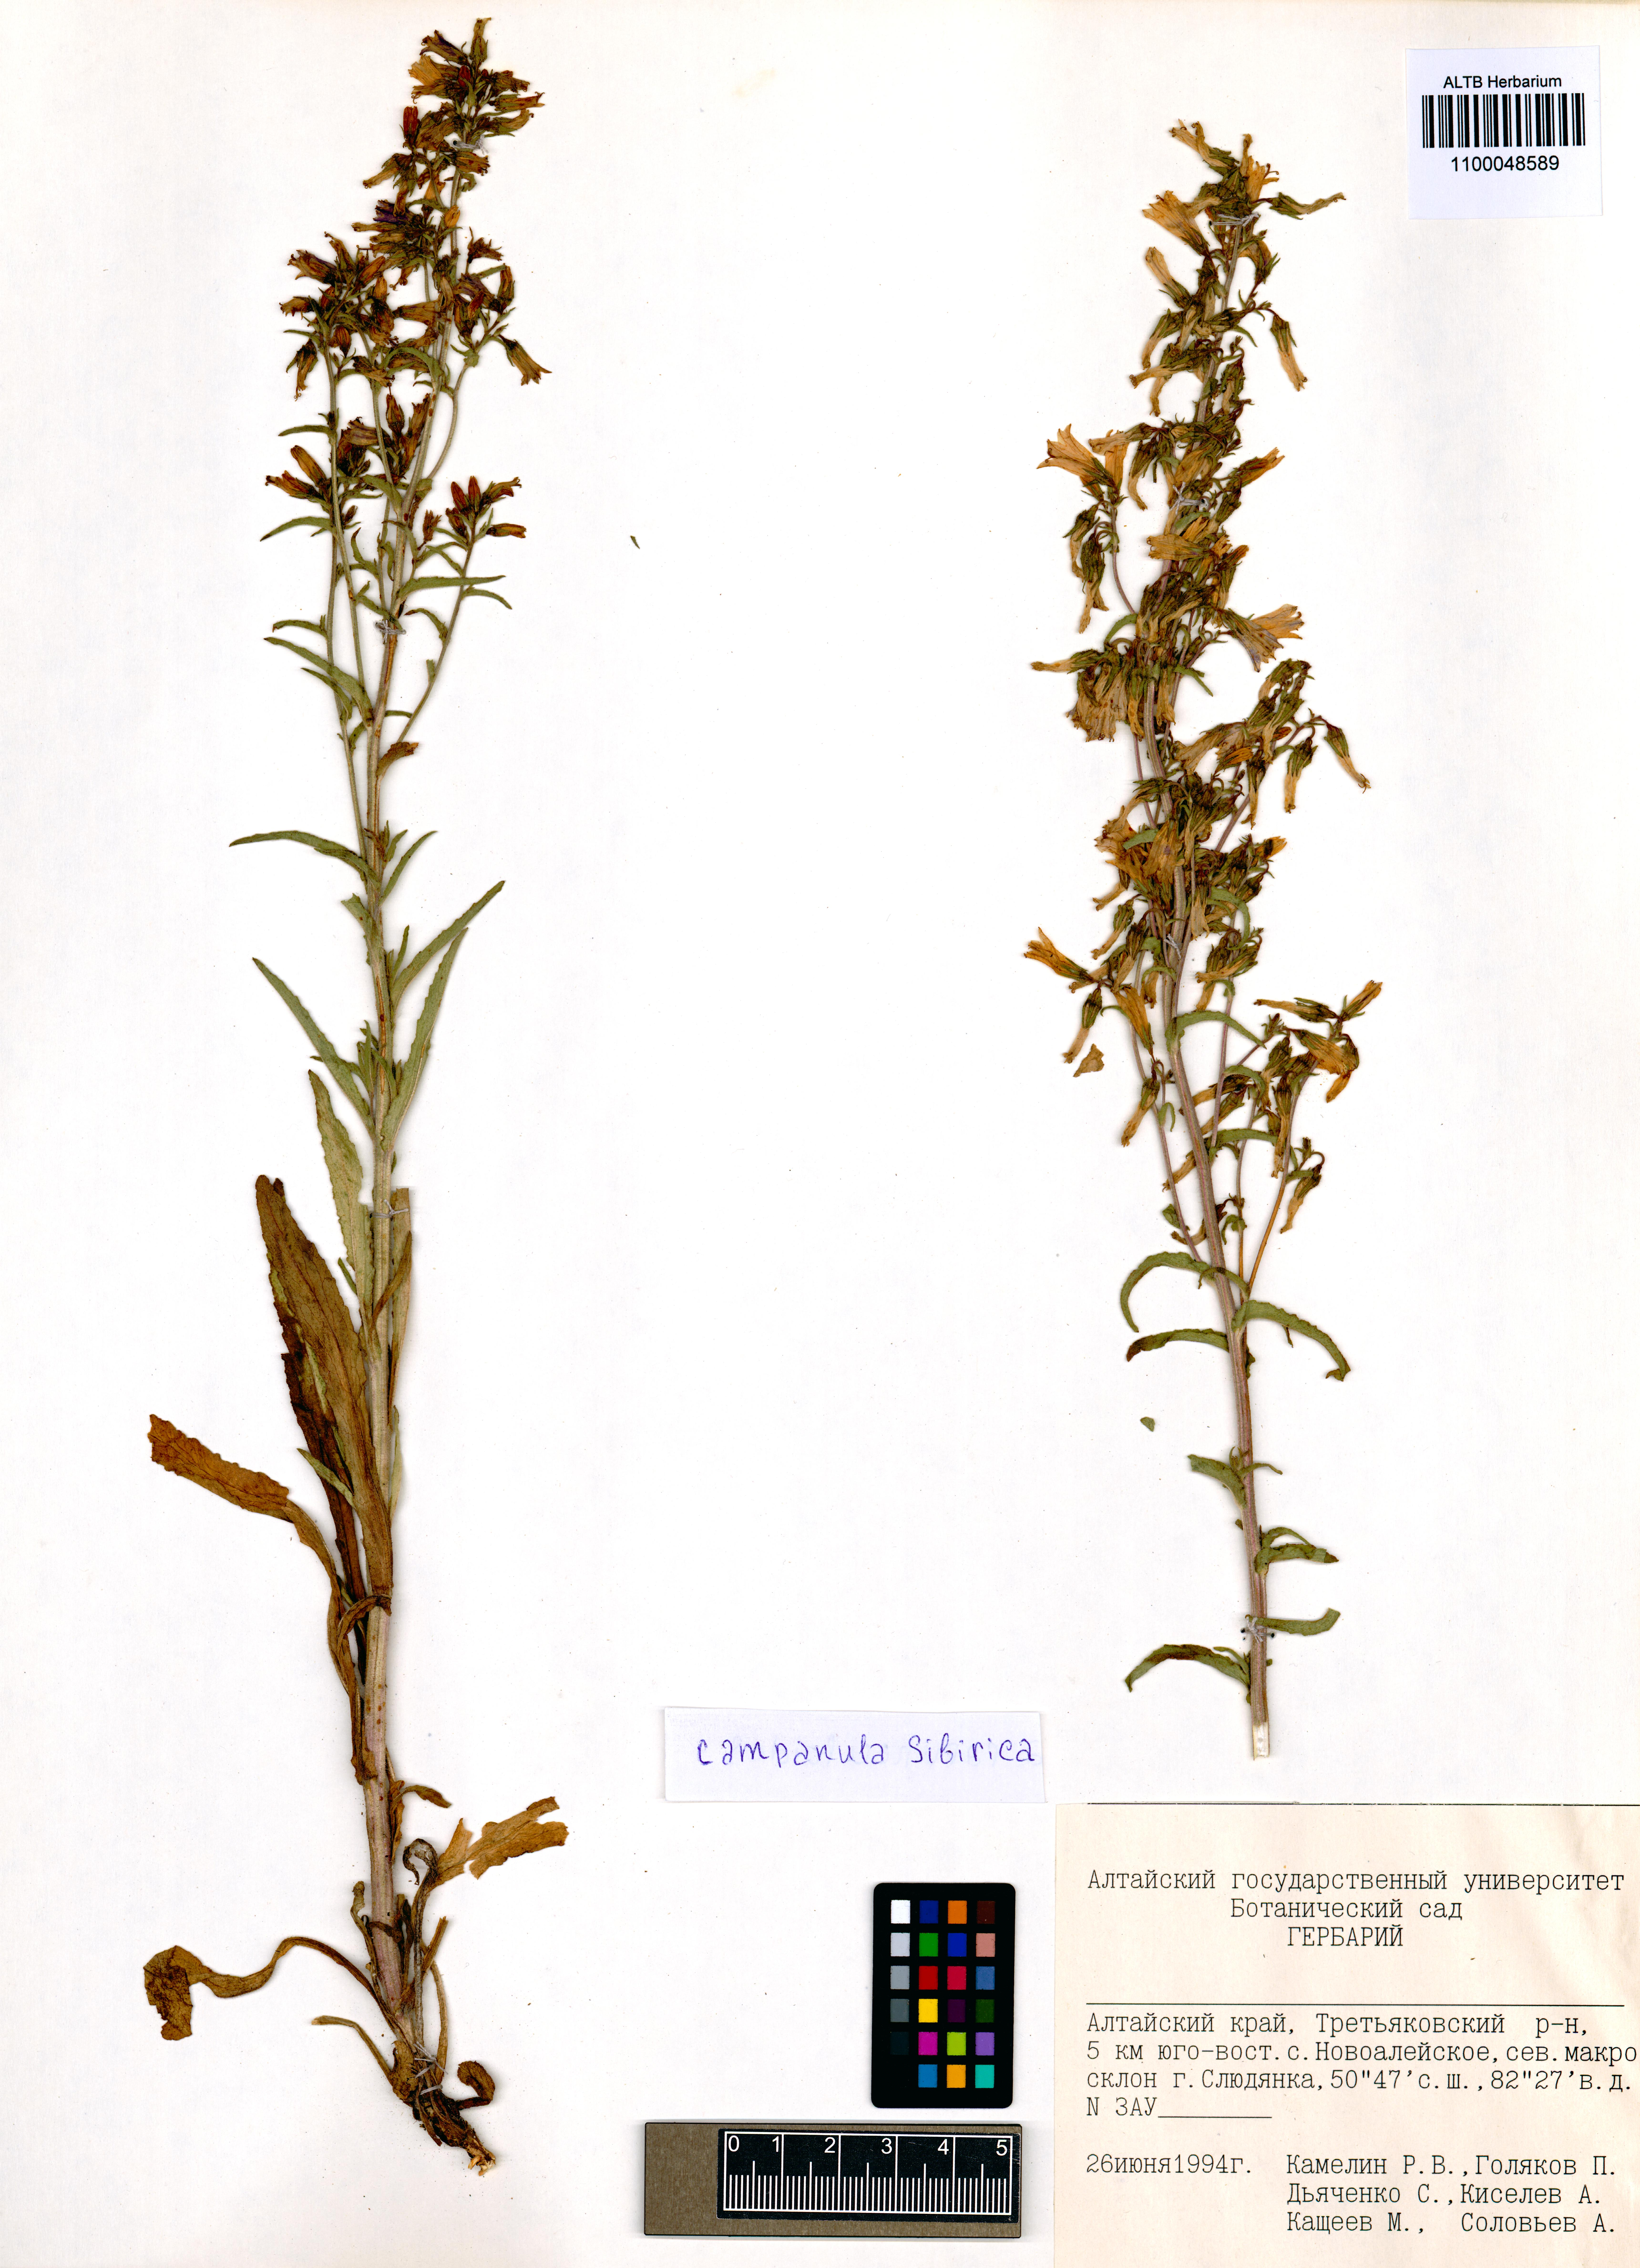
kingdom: Plantae
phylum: Tracheophyta
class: Magnoliopsida
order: Asterales
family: Campanulaceae
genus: Campanula
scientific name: Campanula sibirica
